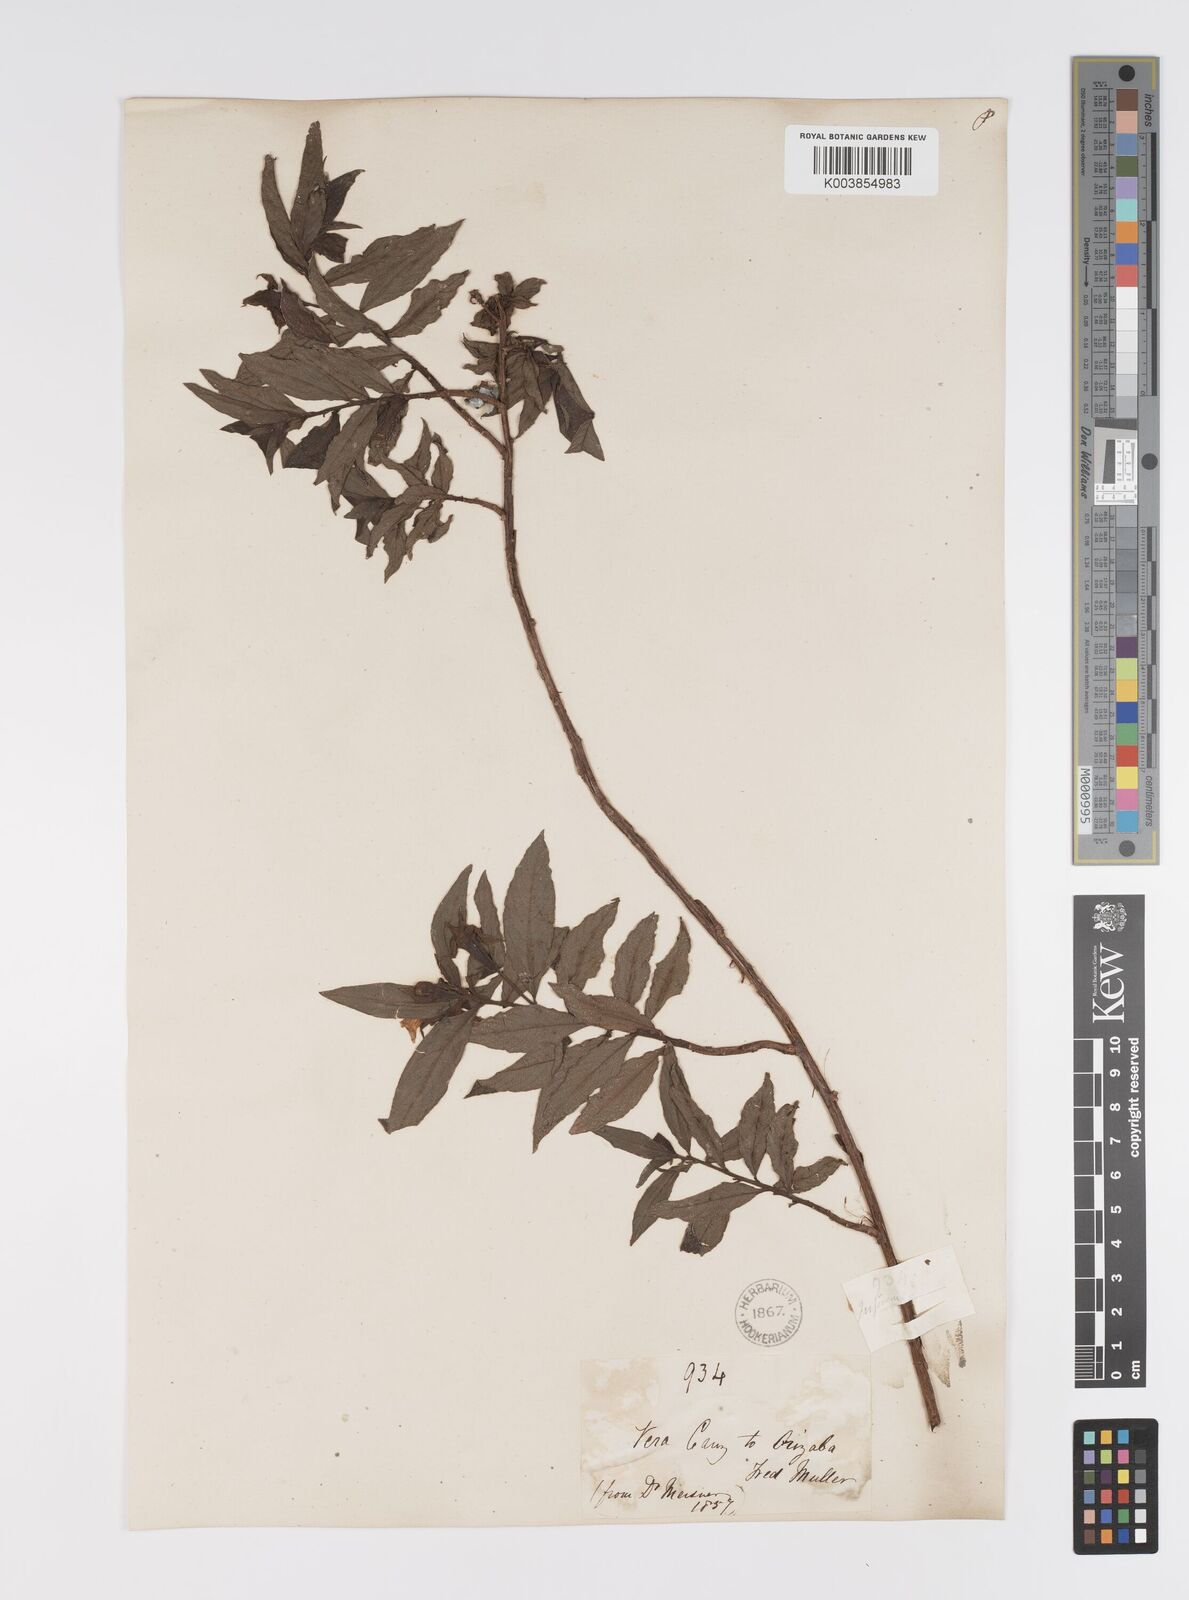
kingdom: Plantae
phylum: Tracheophyta
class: Magnoliopsida
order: Myrtales
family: Onagraceae
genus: Ludwigia
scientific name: Ludwigia peruviana
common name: Peruvian primrose-willow
